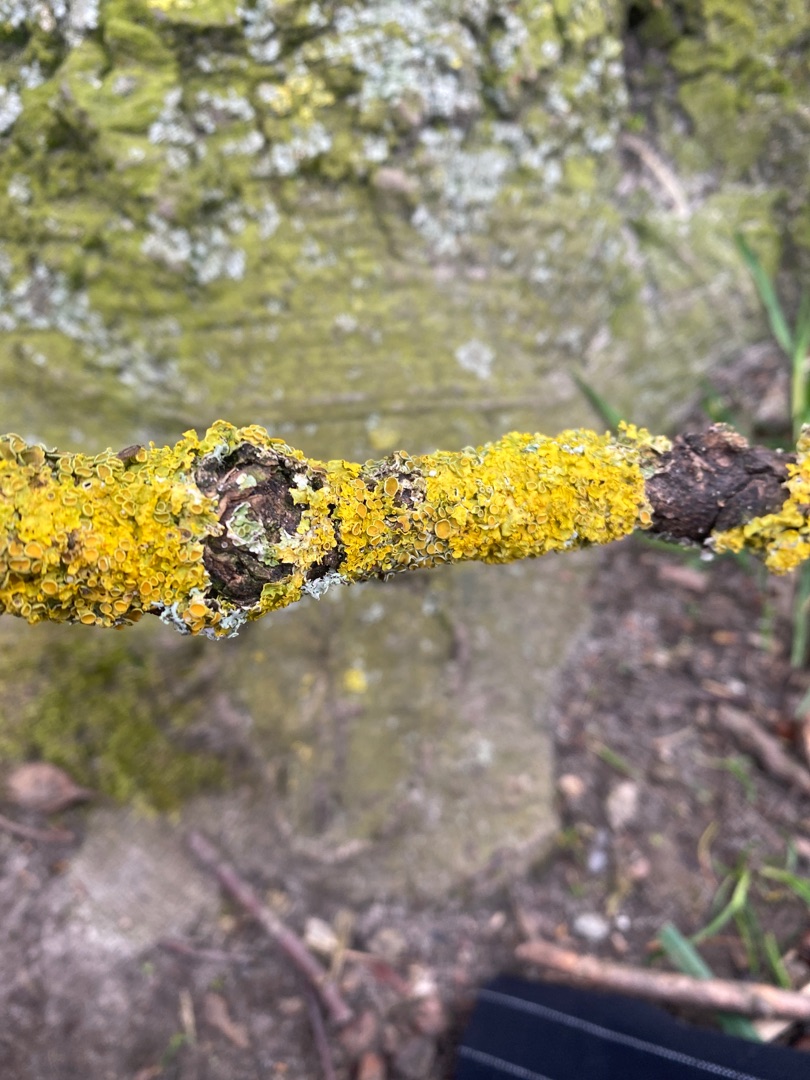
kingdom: Fungi
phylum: Ascomycota
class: Lecanoromycetes
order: Teloschistales
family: Teloschistaceae
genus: Xanthoria
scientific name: Xanthoria parietina
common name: Almindelig væggelav
